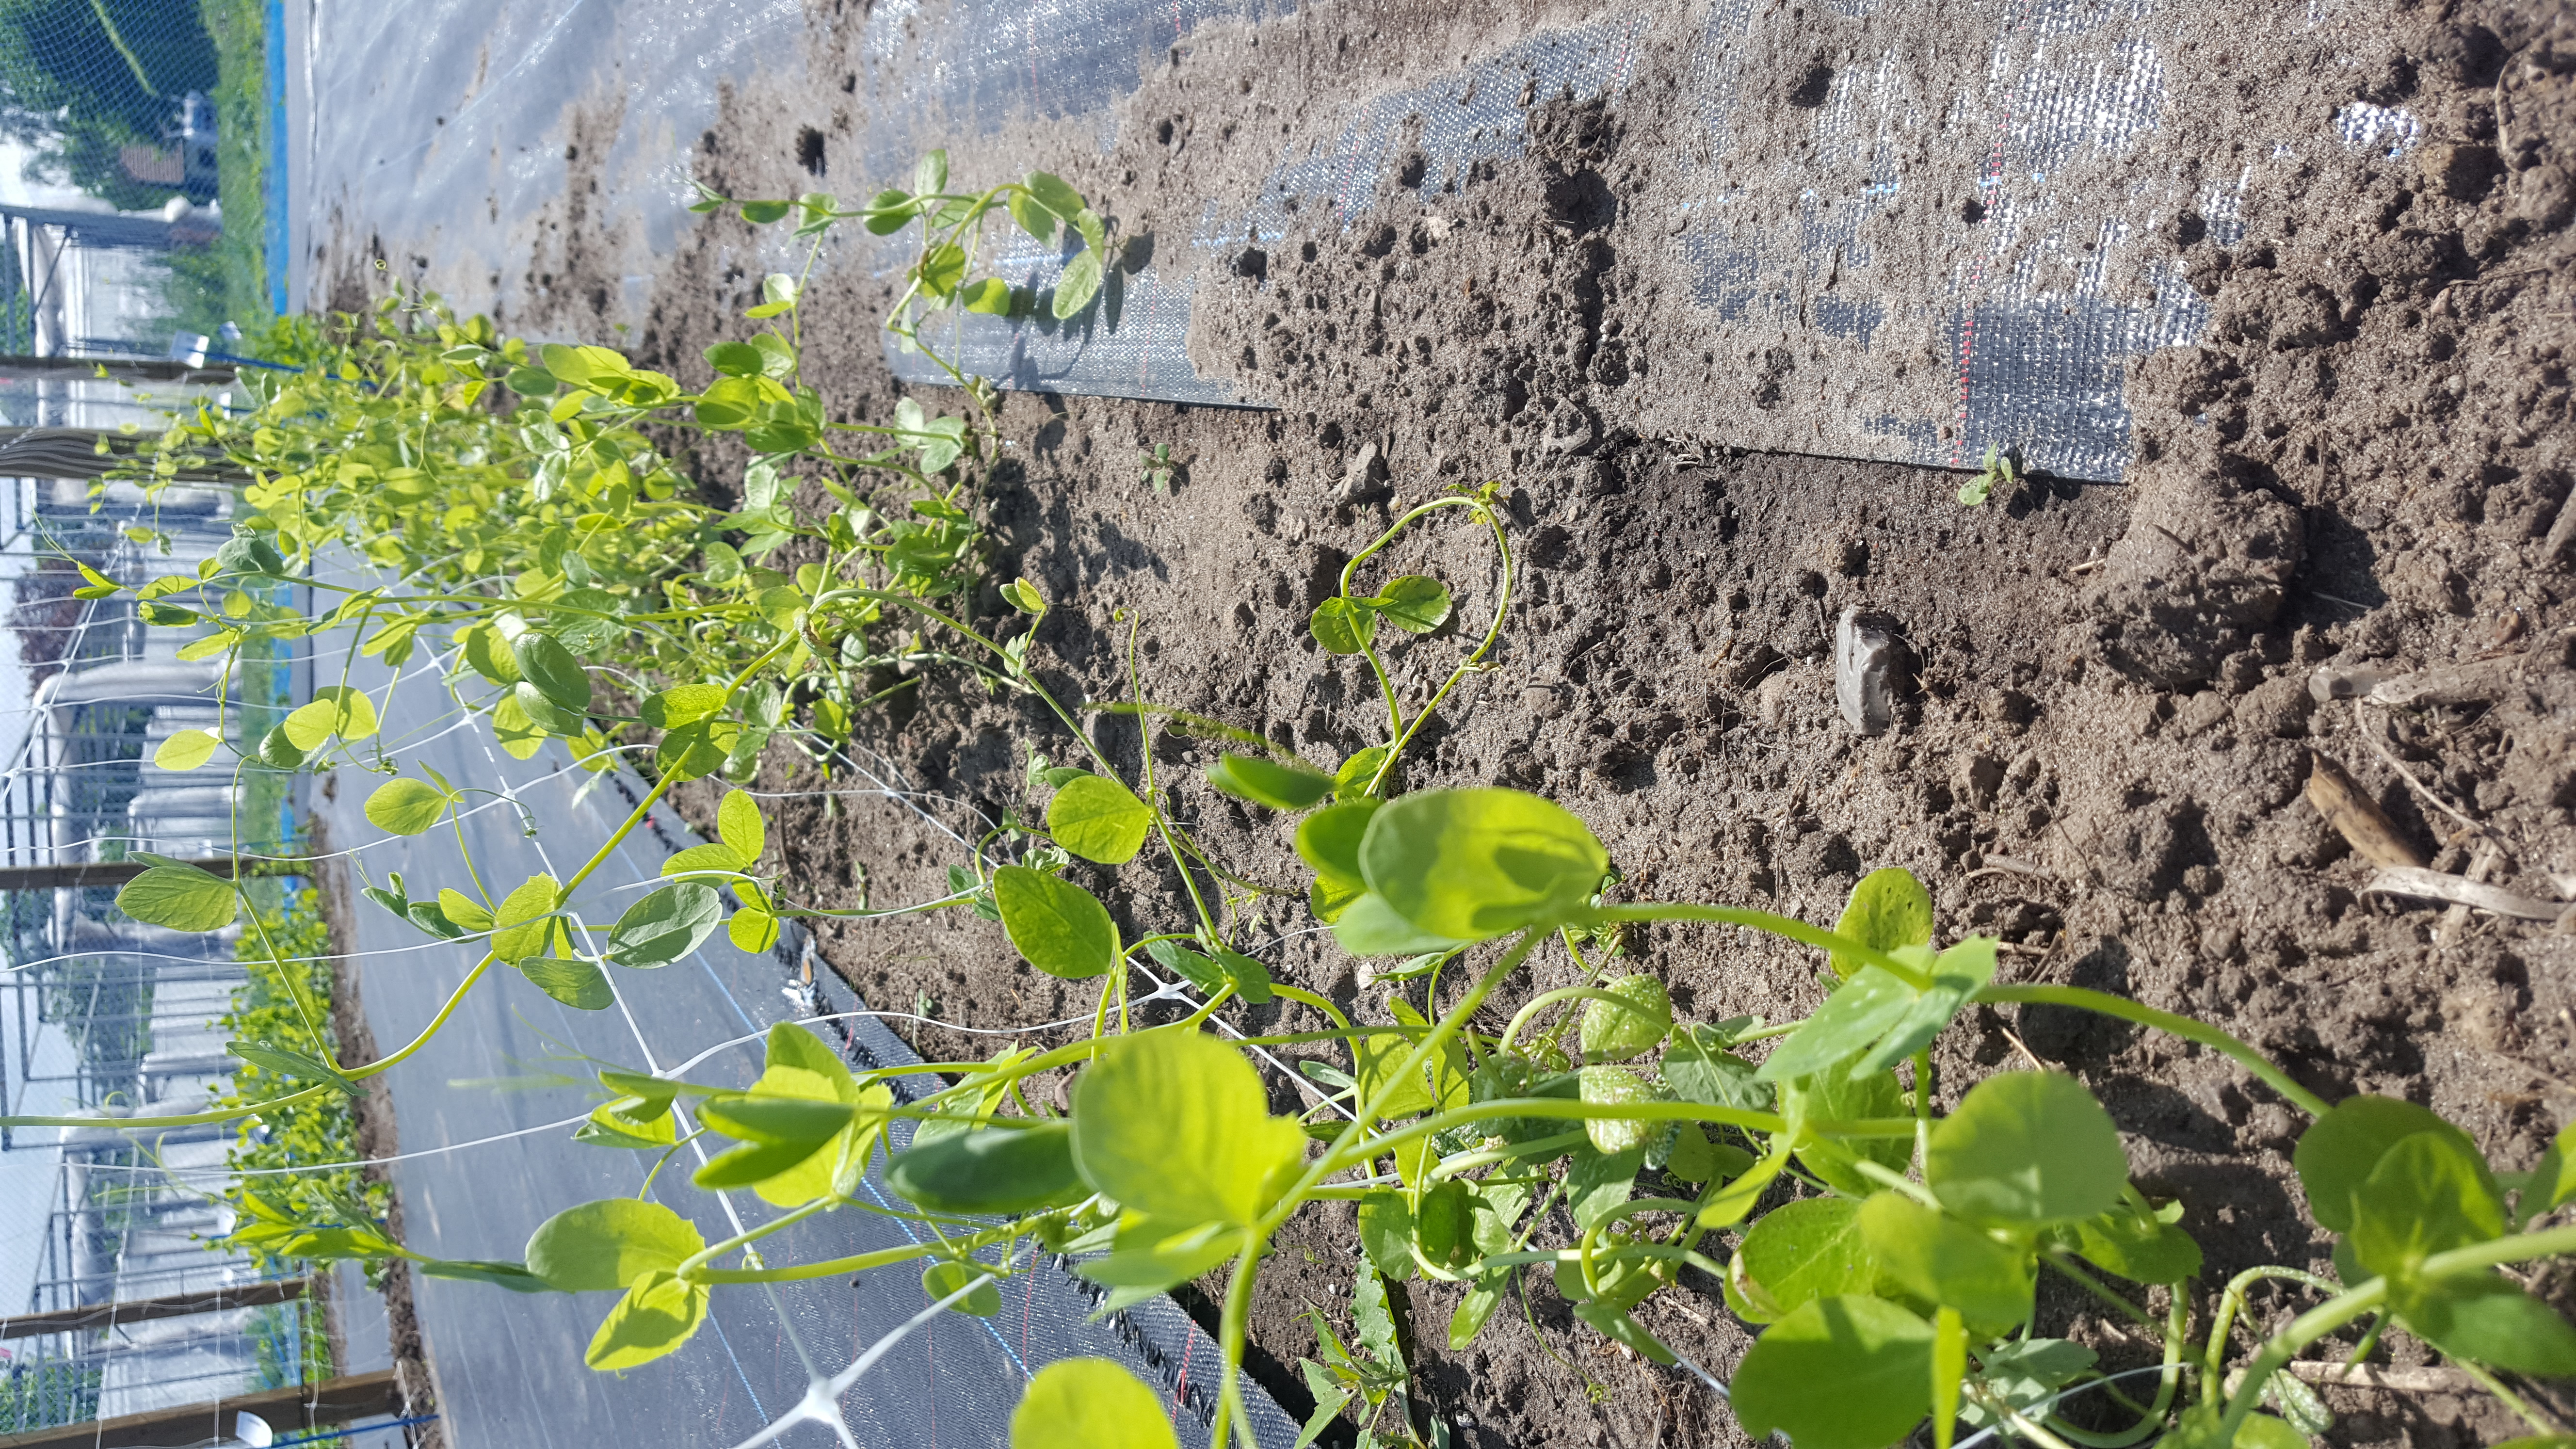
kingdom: Plantae
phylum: Tracheophyta
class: Magnoliopsida
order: Fabales
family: Fabaceae
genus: Lathyrus
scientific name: Lathyrus oleraceus
